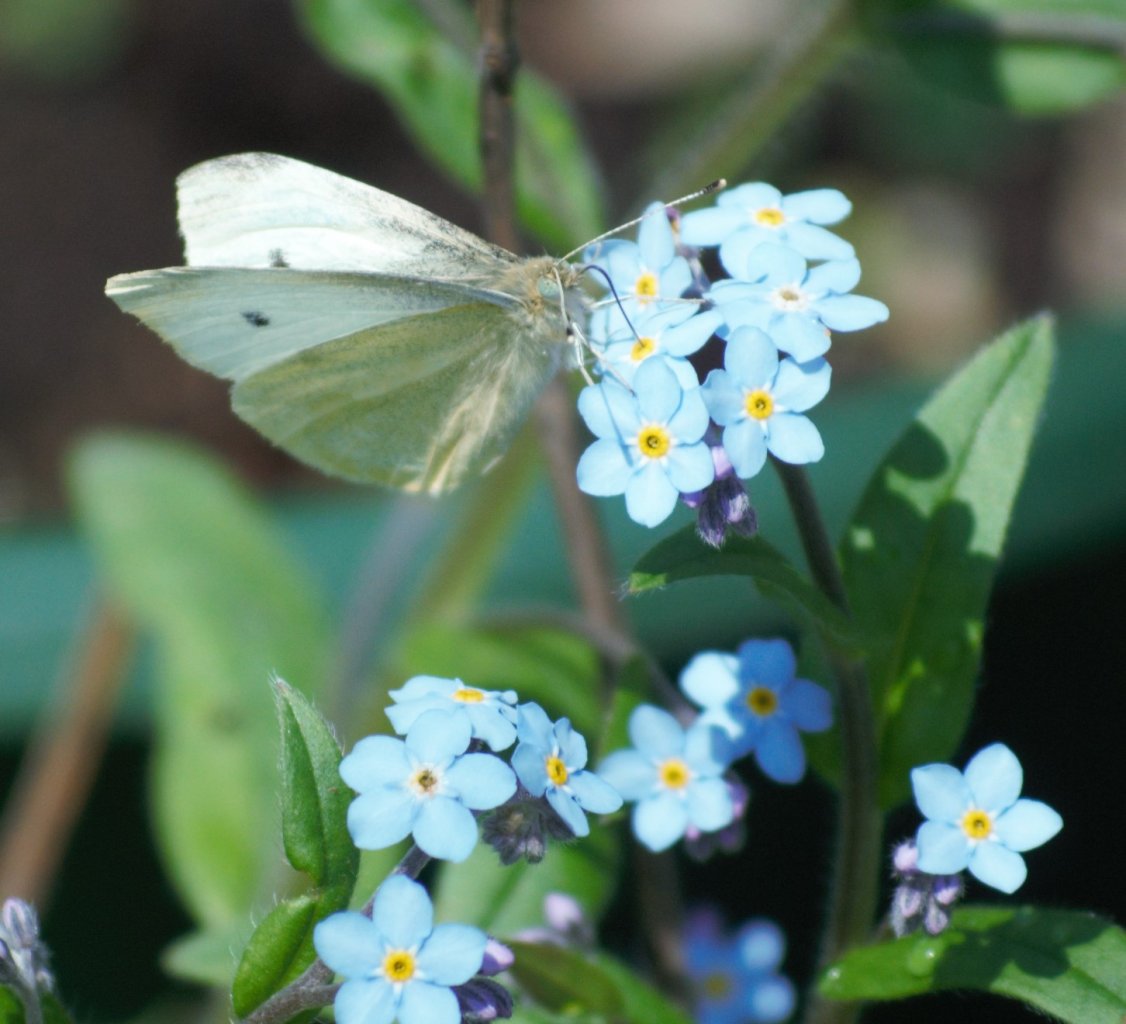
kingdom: Animalia
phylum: Arthropoda
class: Insecta
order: Lepidoptera
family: Pieridae
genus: Pieris
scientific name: Pieris rapae
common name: Cabbage White
